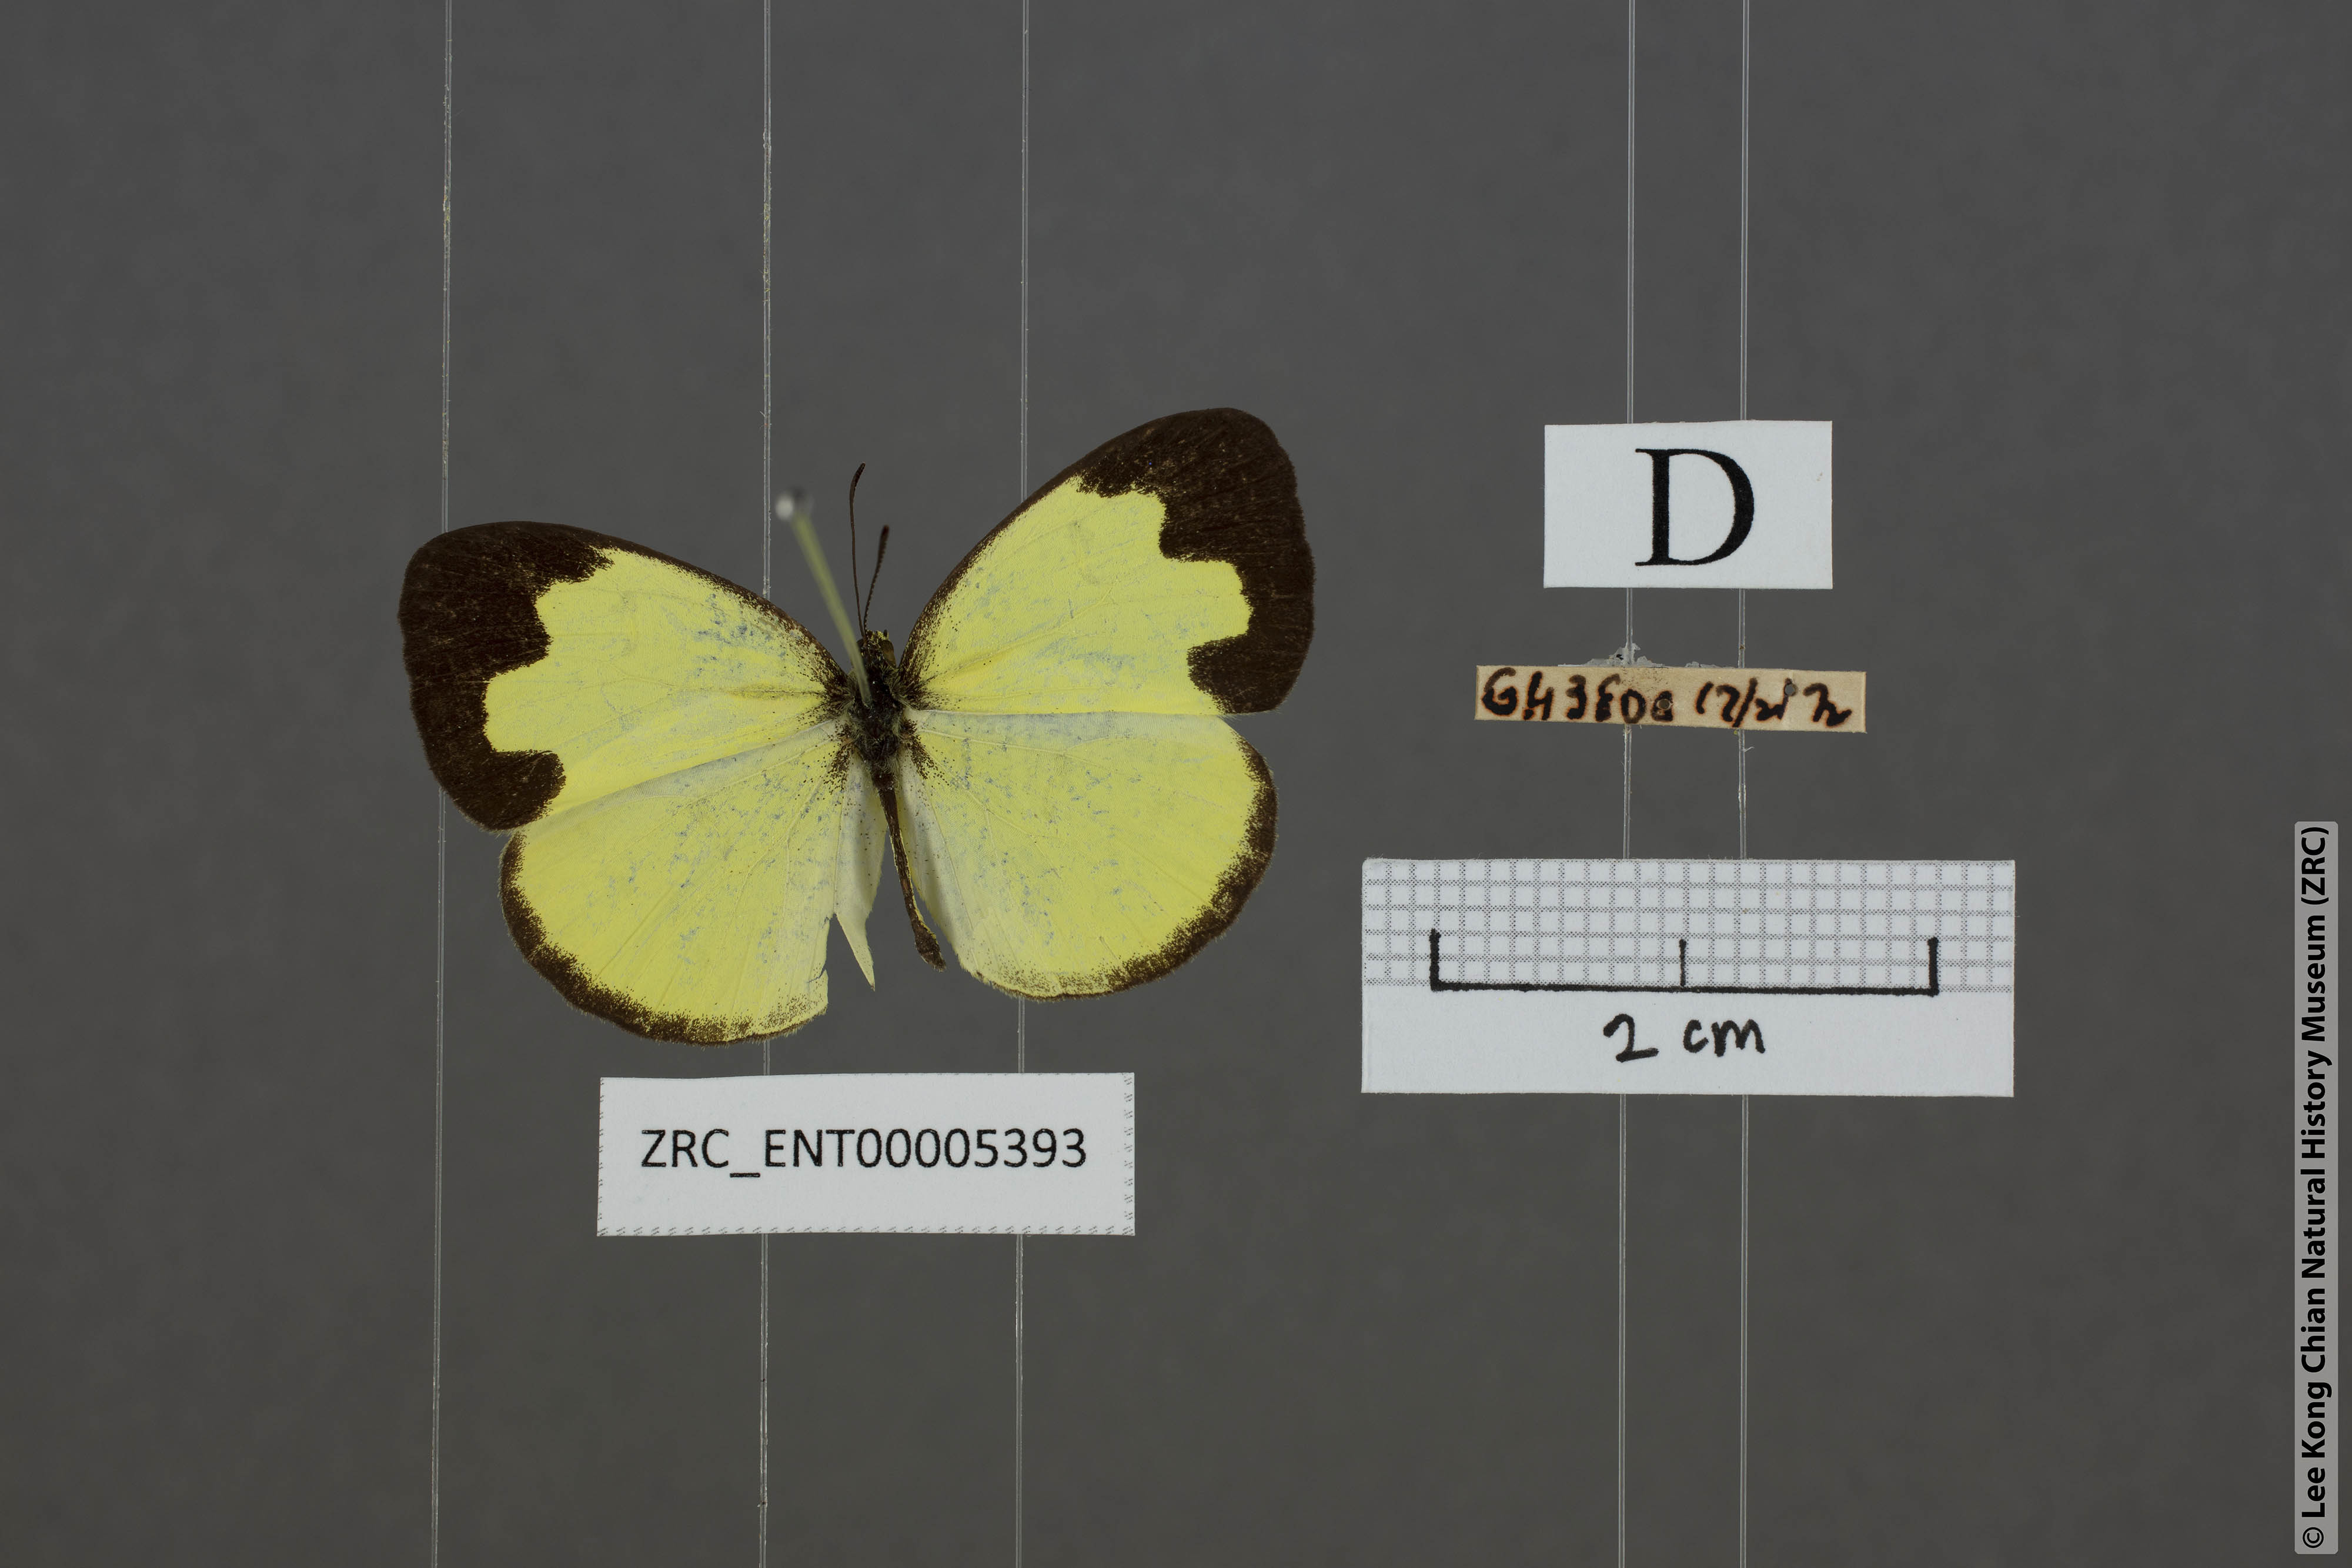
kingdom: Animalia
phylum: Arthropoda
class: Insecta
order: Lepidoptera
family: Pieridae
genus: Eurema
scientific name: Eurema ada
